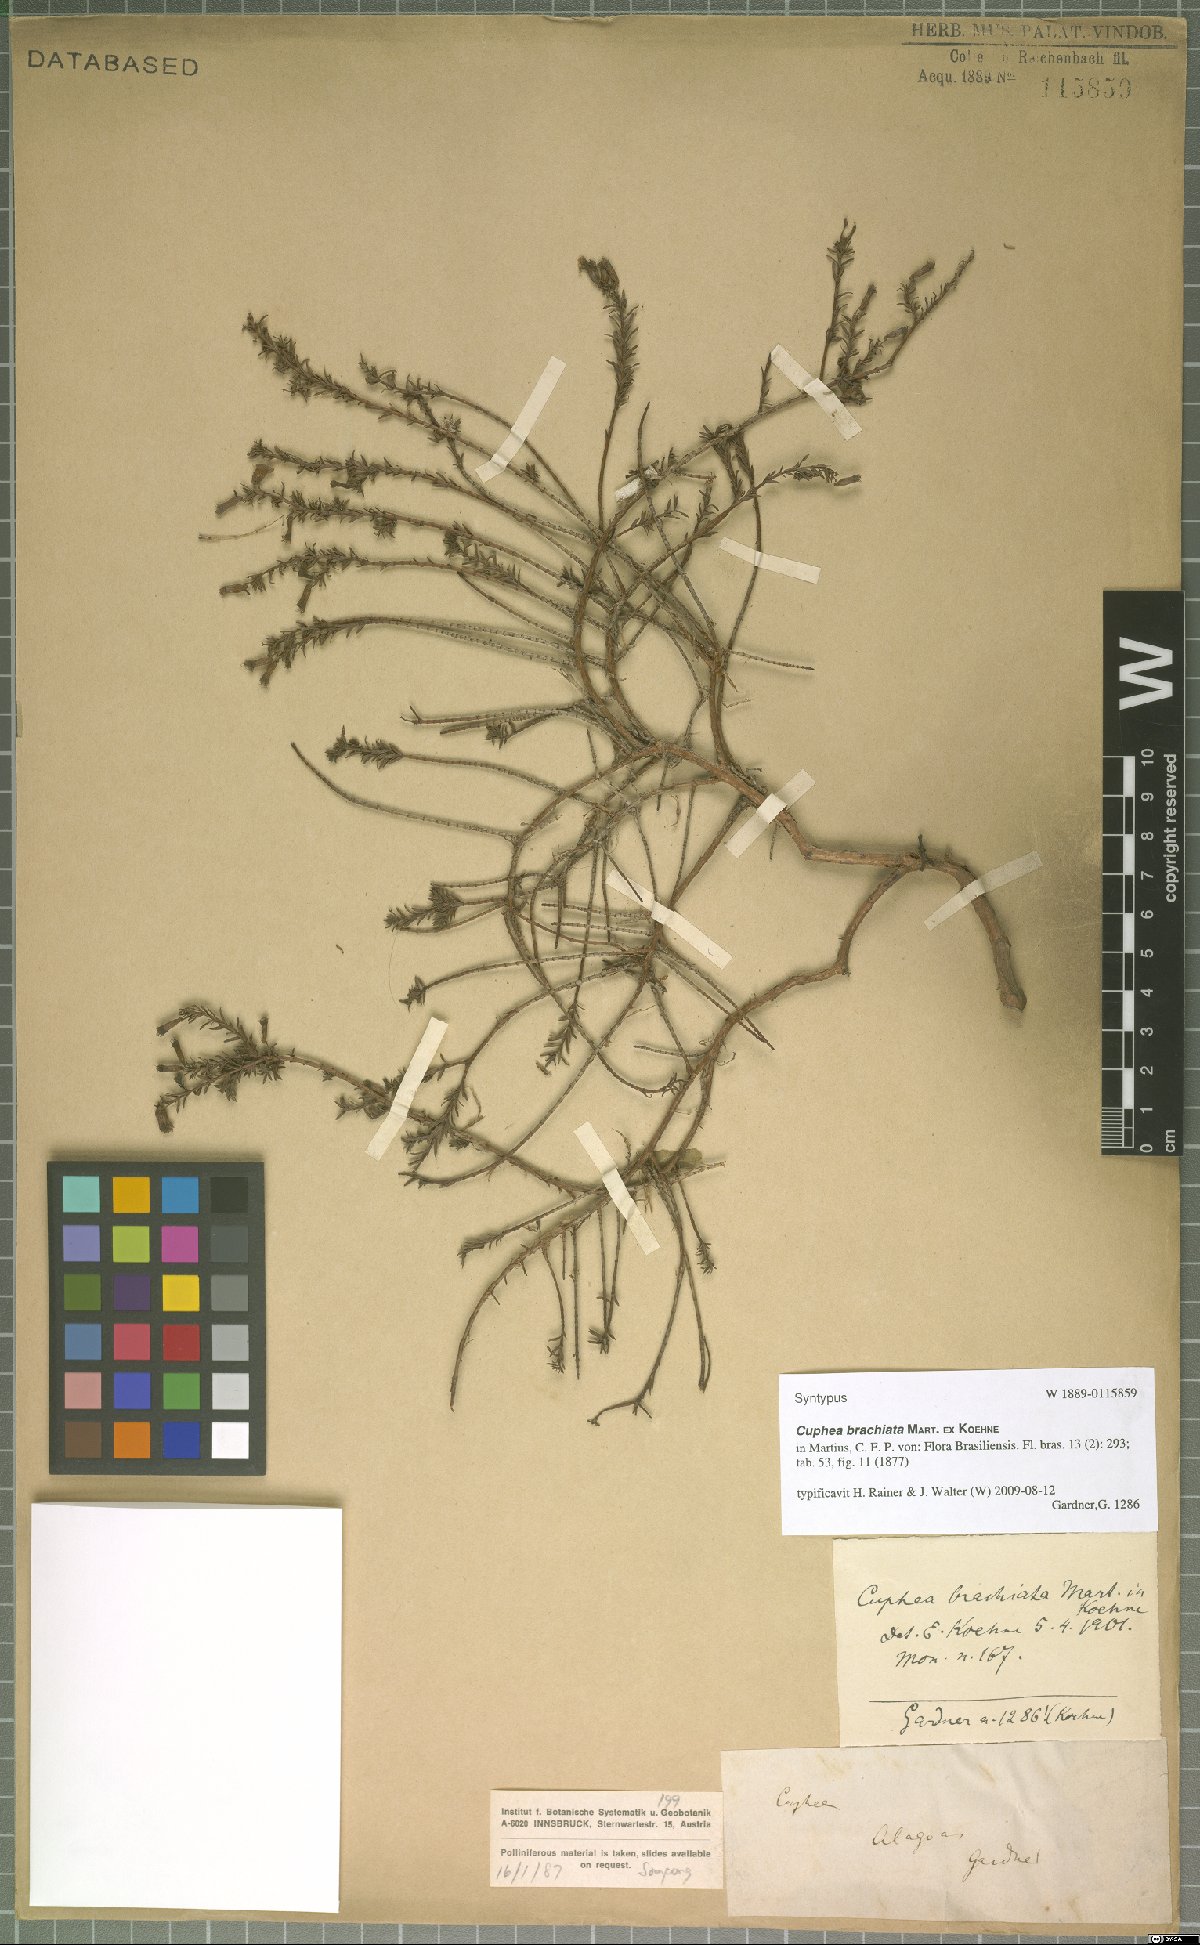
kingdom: Plantae
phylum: Tracheophyta
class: Magnoliopsida
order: Myrtales
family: Lythraceae
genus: Cuphea
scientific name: Cuphea brachiata
